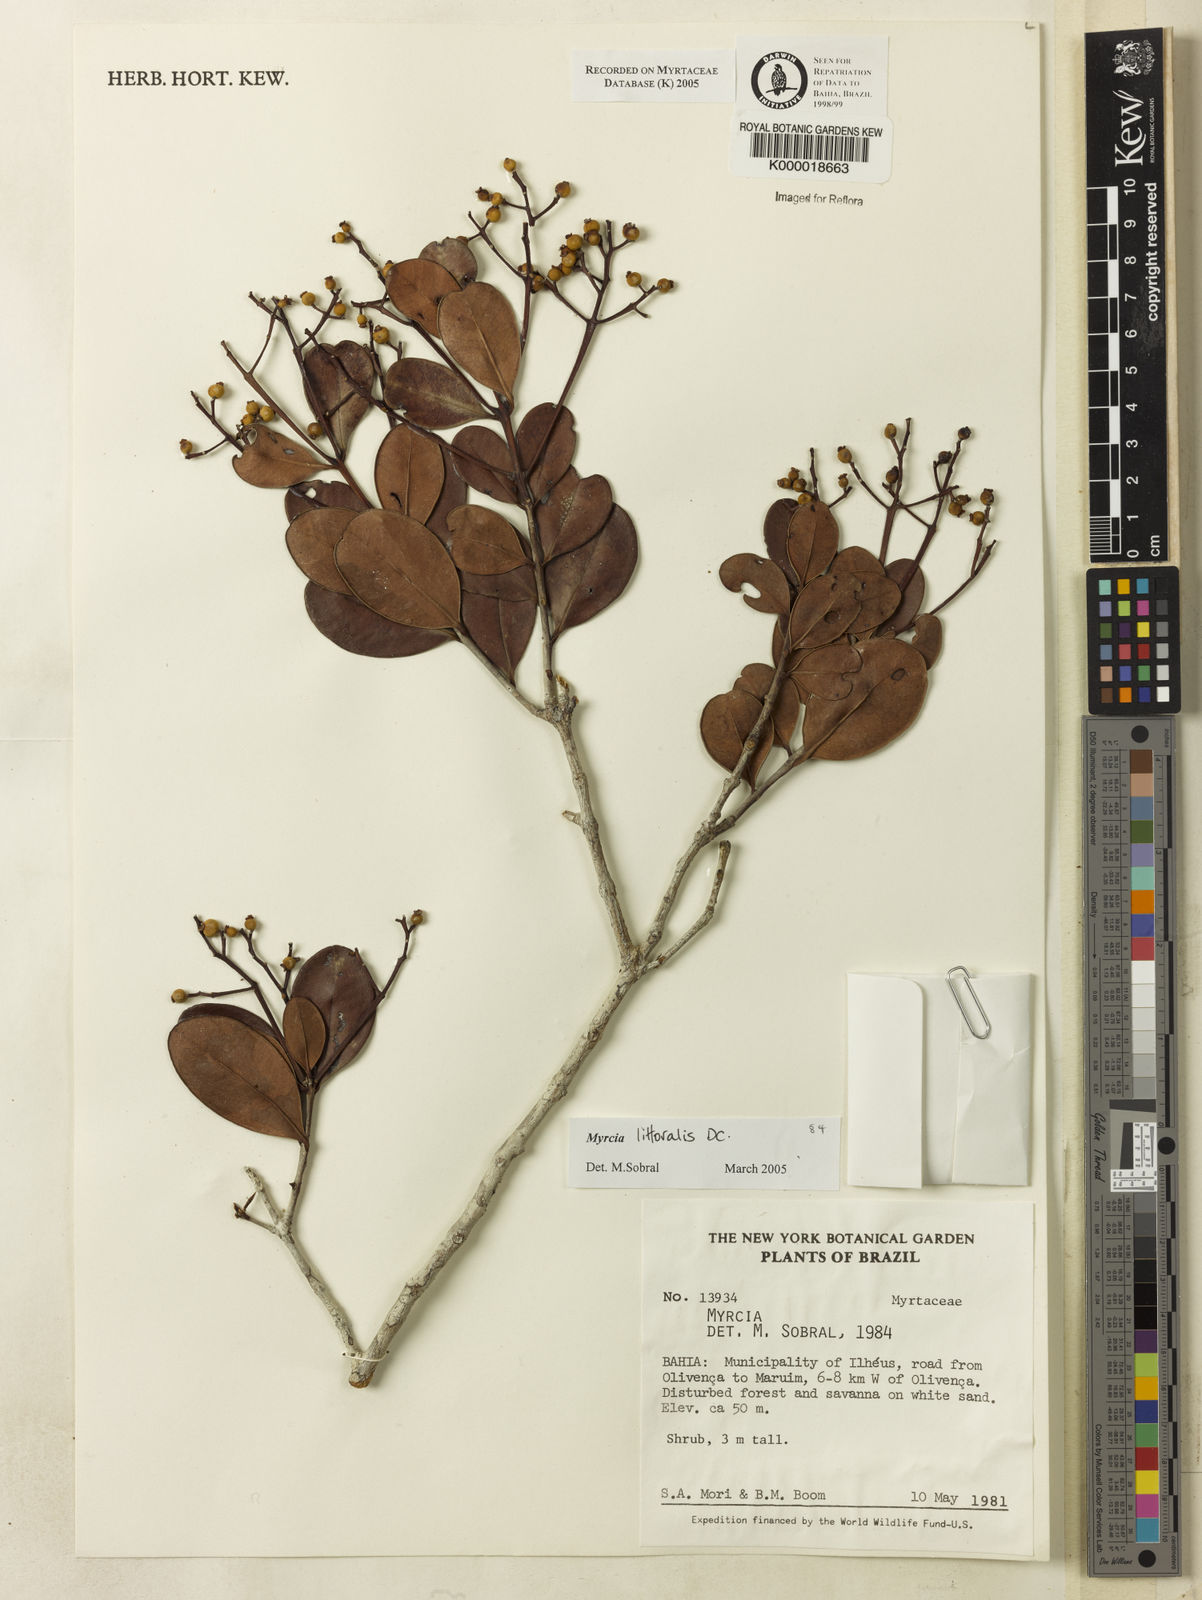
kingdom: Plantae
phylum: Tracheophyta
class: Magnoliopsida
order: Myrtales
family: Myrtaceae
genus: Myrcia
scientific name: Myrcia
